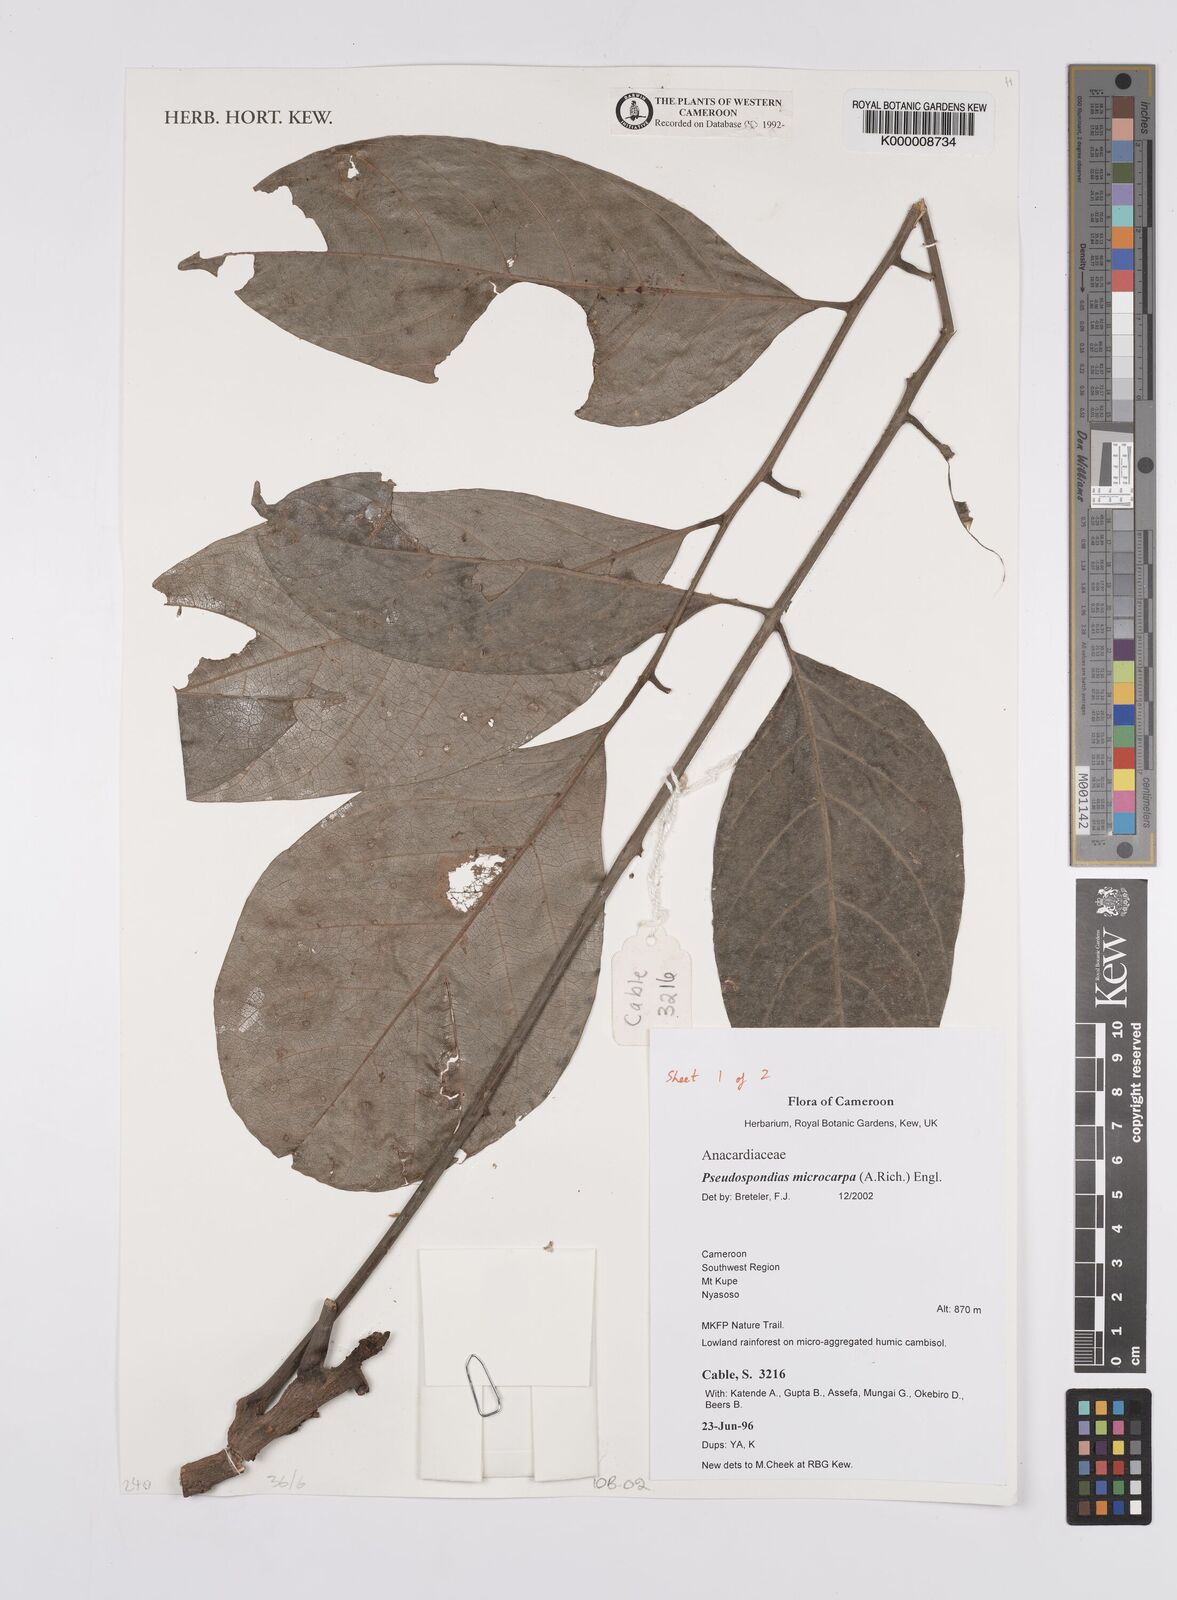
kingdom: Plantae
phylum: Tracheophyta
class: Magnoliopsida
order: Sapindales
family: Anacardiaceae
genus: Pseudospondias
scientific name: Pseudospondias microcarpa
